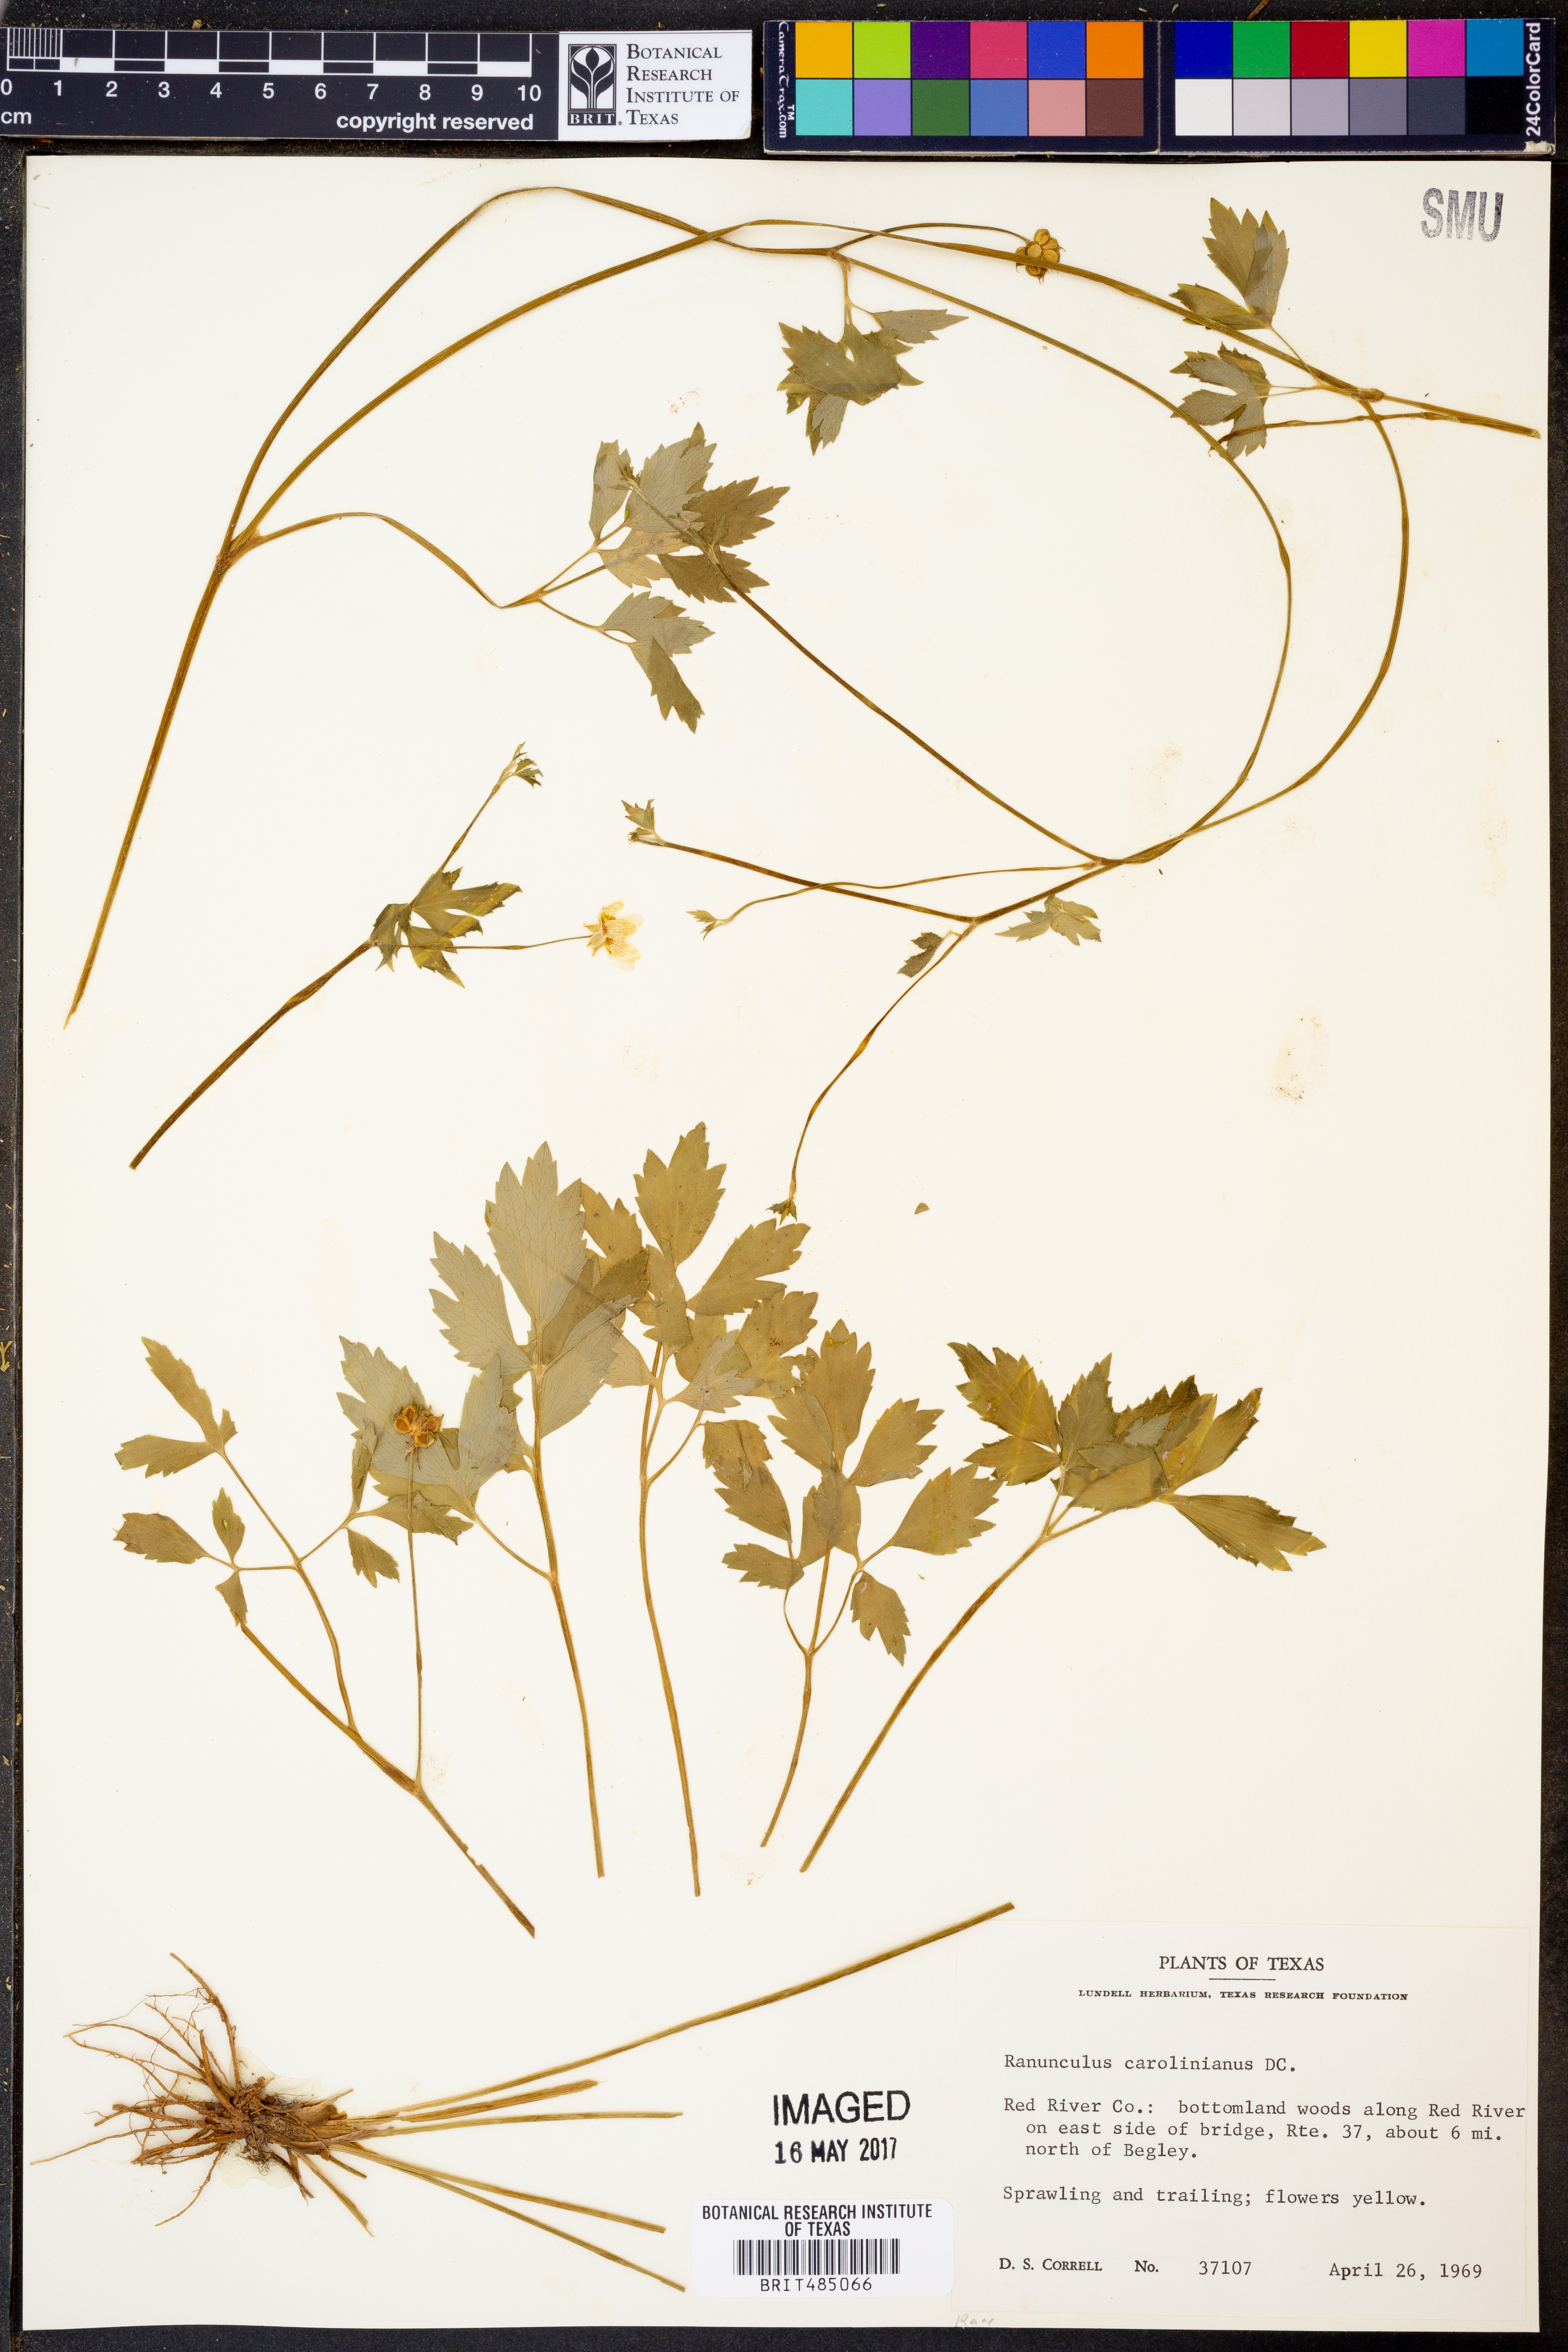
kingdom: Plantae
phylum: Tracheophyta
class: Magnoliopsida
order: Ranunculales
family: Ranunculaceae
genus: Ranunculus
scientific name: Ranunculus hispidus
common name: Bristly buttercup
